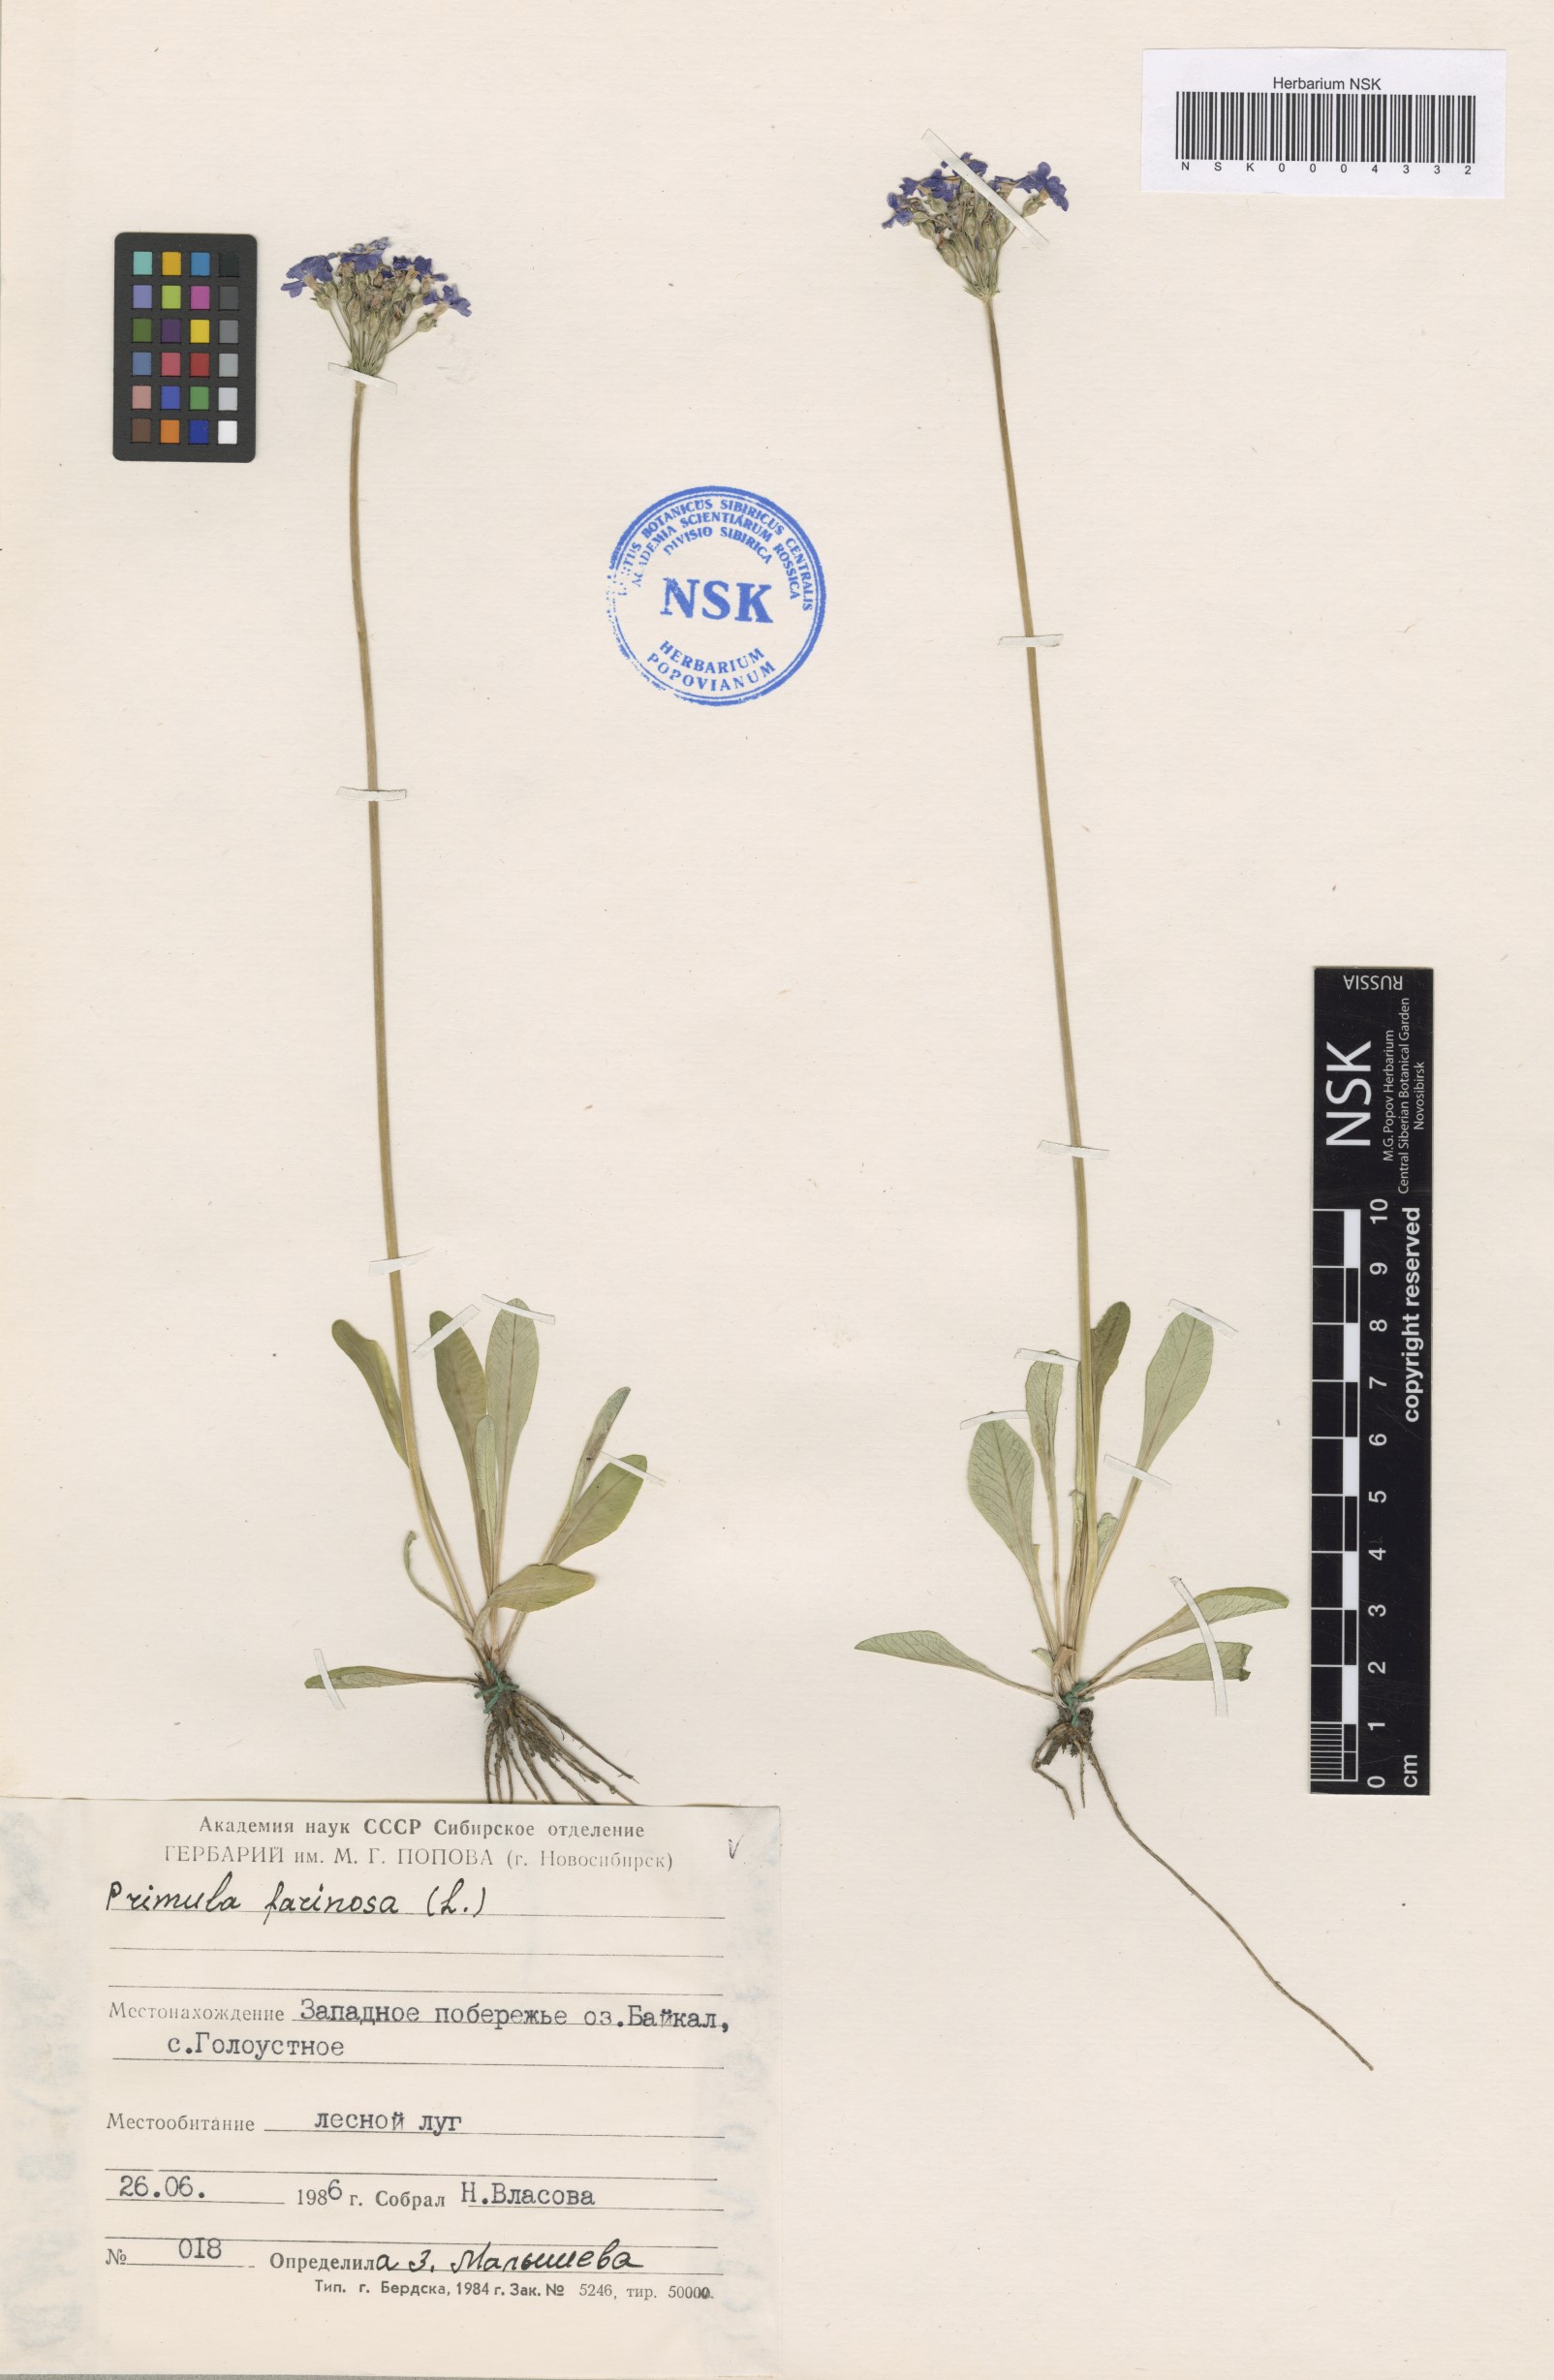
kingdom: Plantae
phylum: Tracheophyta
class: Magnoliopsida
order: Ericales
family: Primulaceae
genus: Primula
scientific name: Primula farinosa
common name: Bird's-eye primrose
